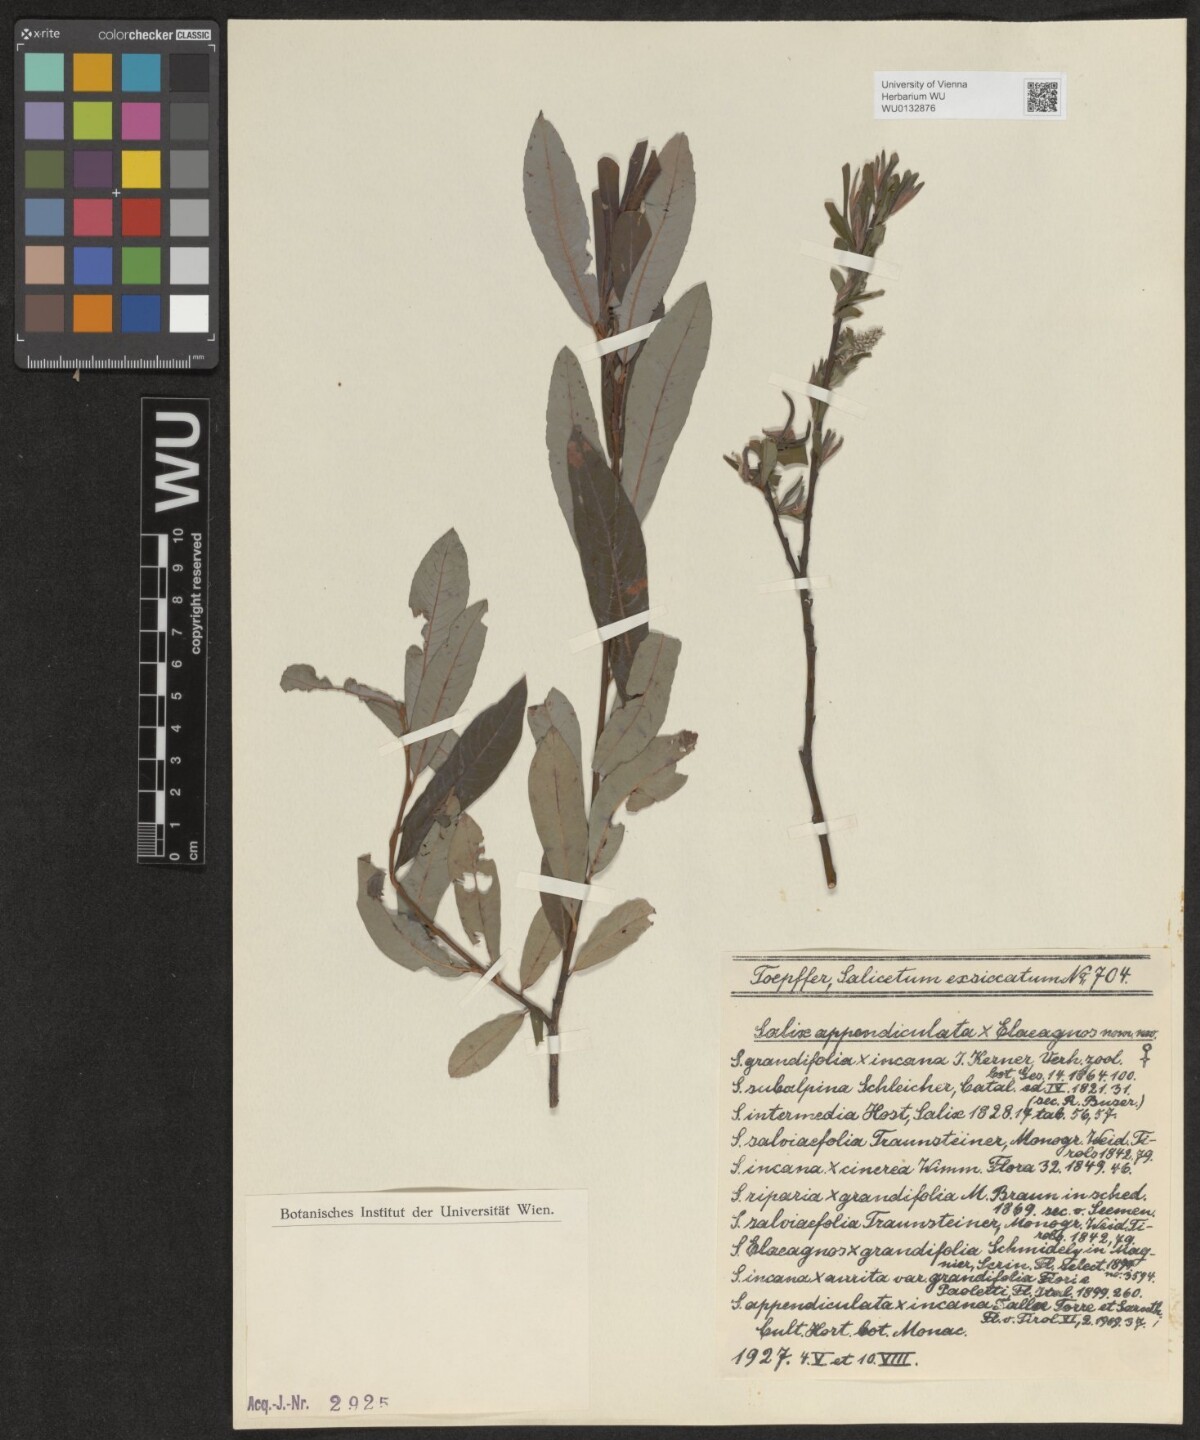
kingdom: Plantae
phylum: Tracheophyta
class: Magnoliopsida
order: Malpighiales
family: Salicaceae
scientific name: Salicaceae
